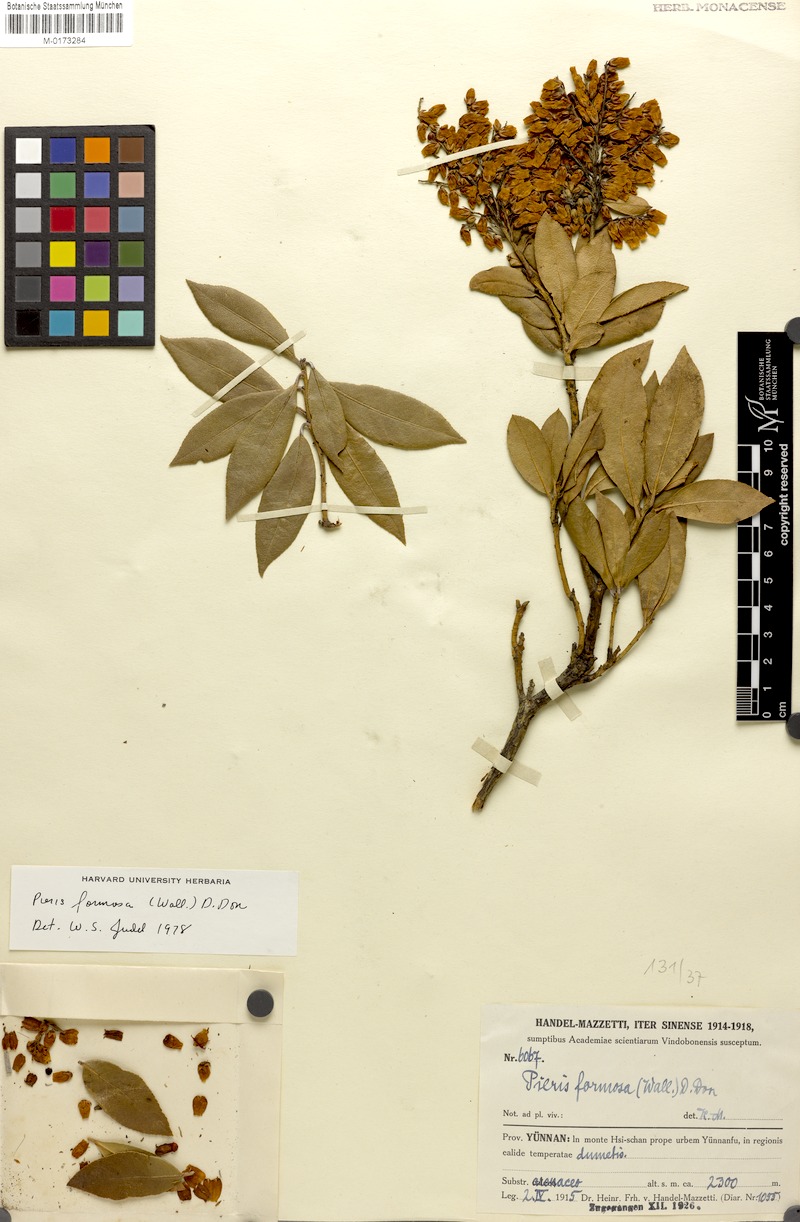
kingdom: Plantae
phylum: Tracheophyta
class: Magnoliopsida
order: Ericales
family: Ericaceae
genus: Pieris
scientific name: Pieris formosa
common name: Formosan pieris
